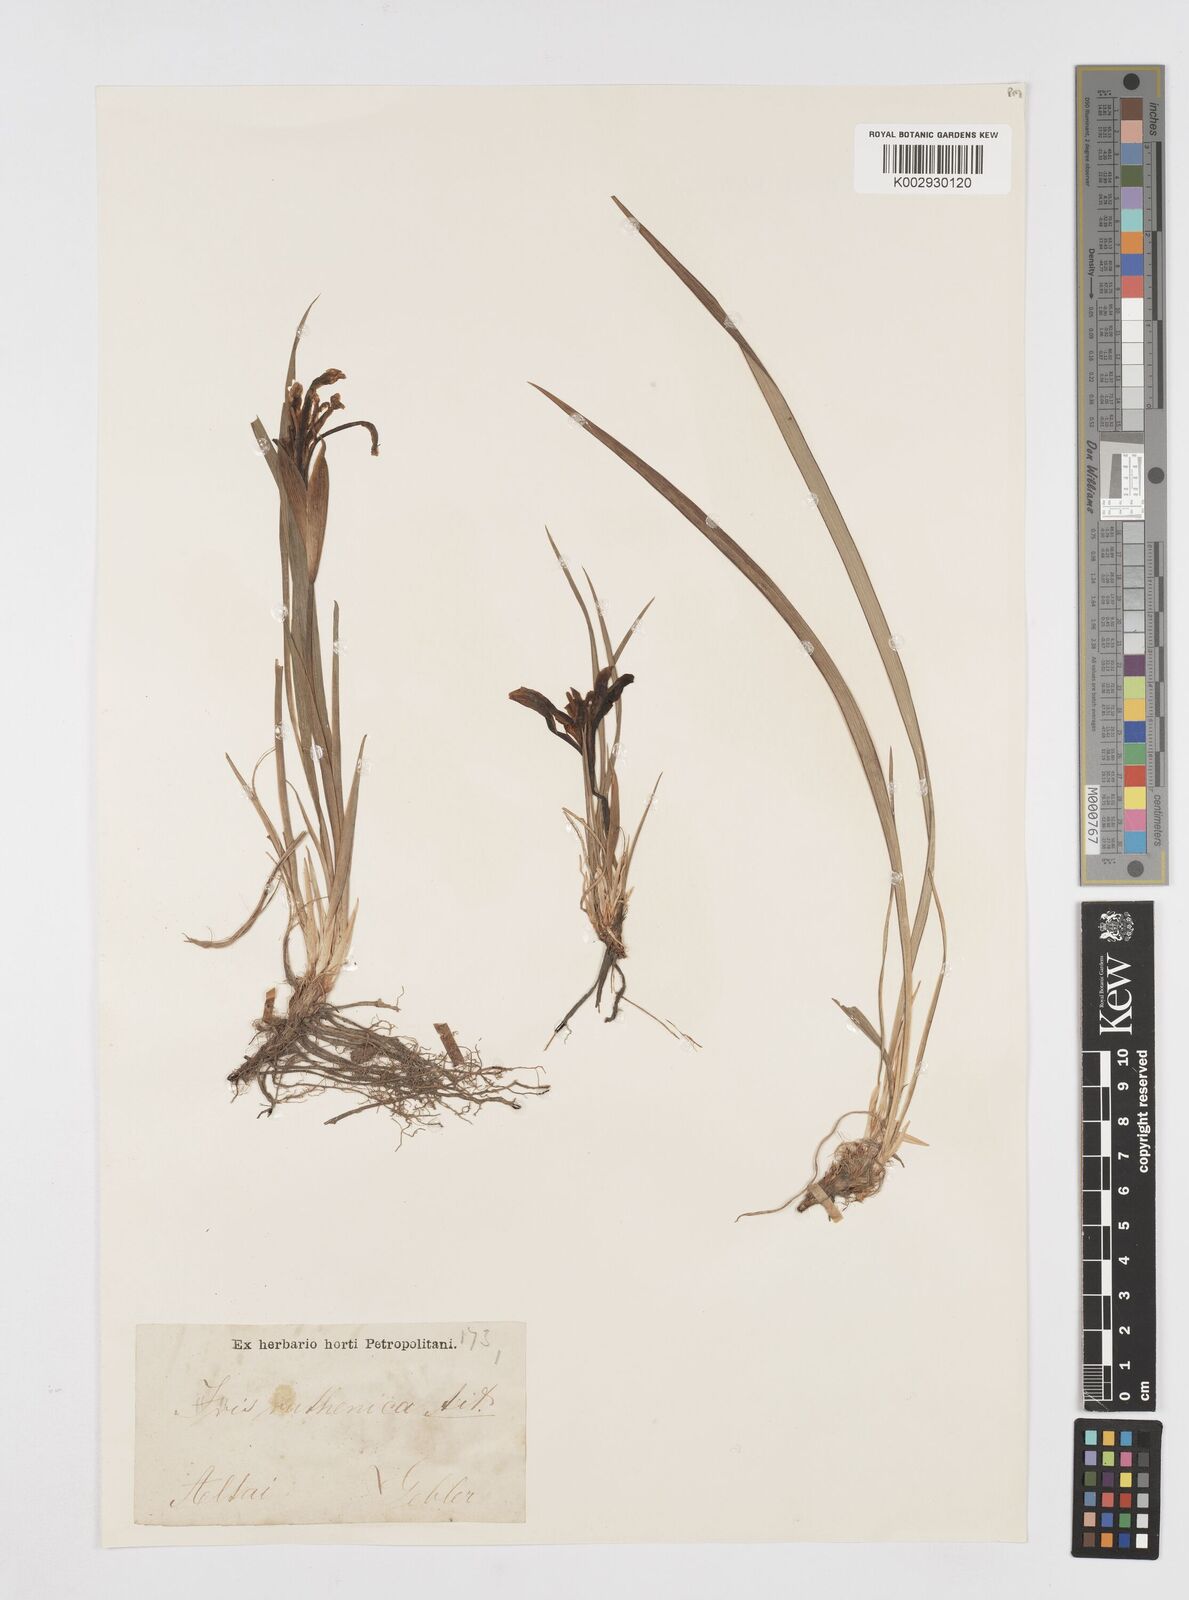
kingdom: Plantae
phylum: Tracheophyta
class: Liliopsida
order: Asparagales
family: Iridaceae
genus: Iris
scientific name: Iris ruthenica
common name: Purple-bract iris
